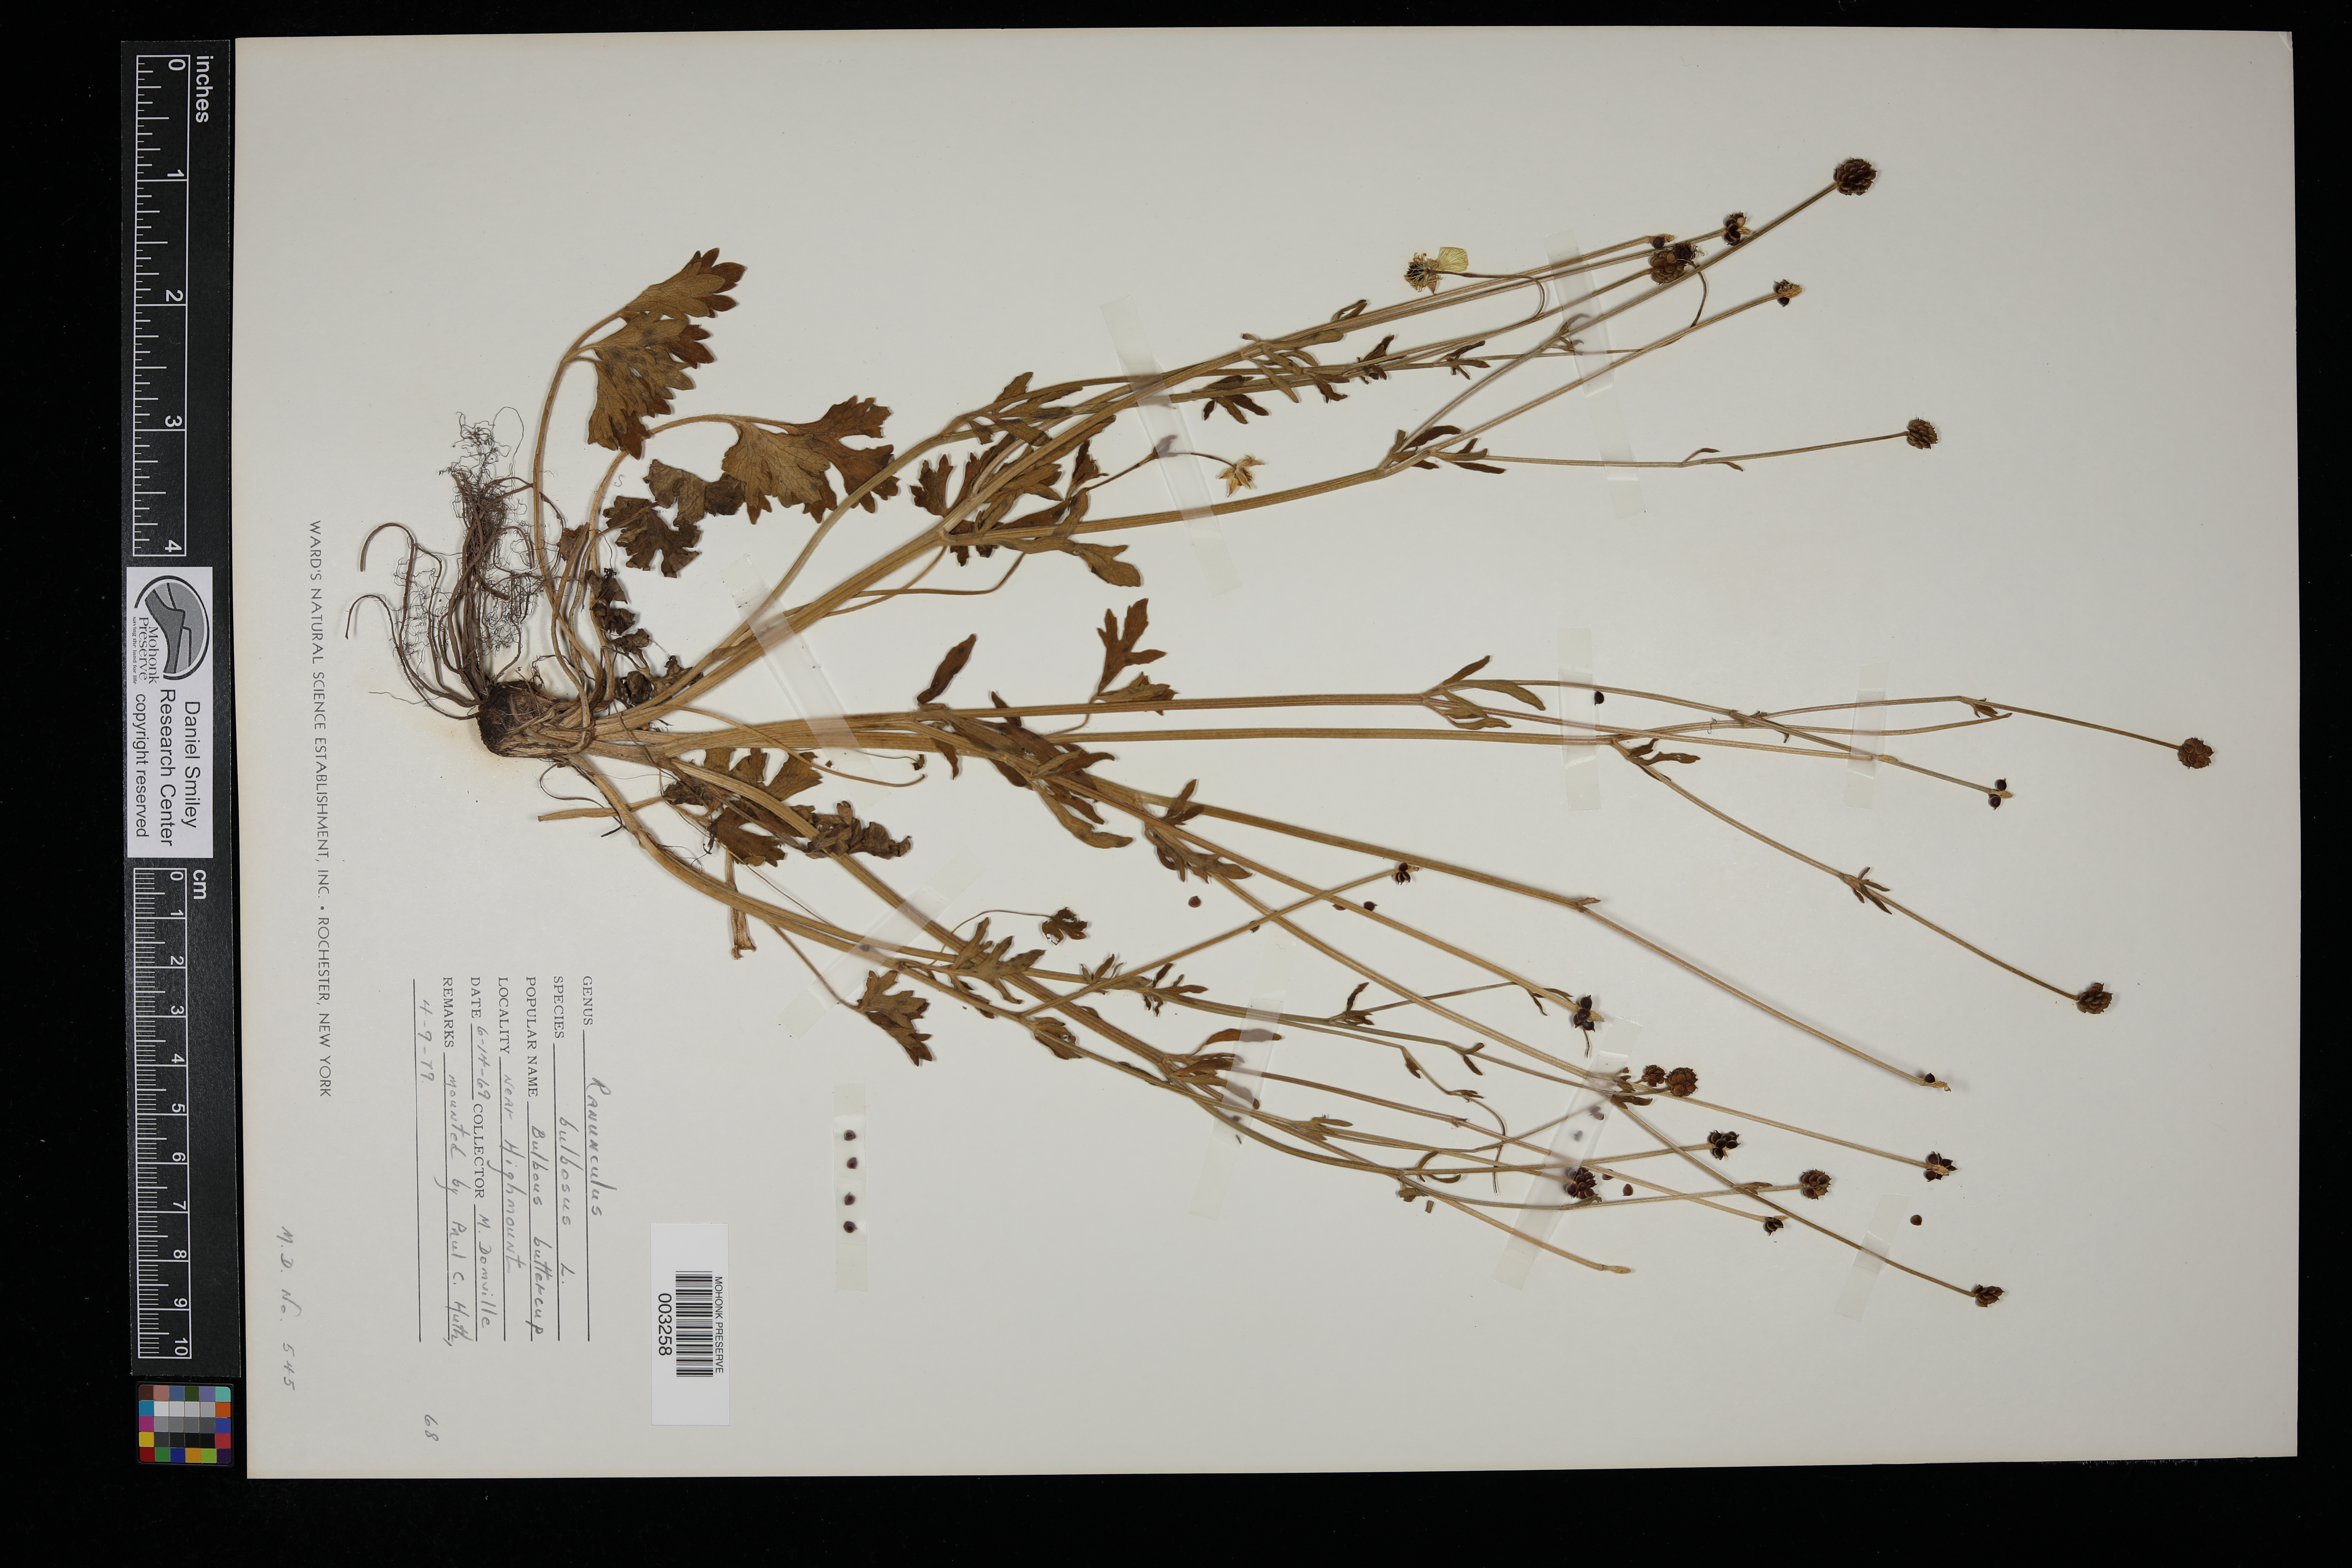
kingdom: Plantae
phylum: Tracheophyta
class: Magnoliopsida
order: Ranunculales
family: Ranunculaceae
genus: Ranunculus
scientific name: Ranunculus bulbosus
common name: Bulbous buttercup
